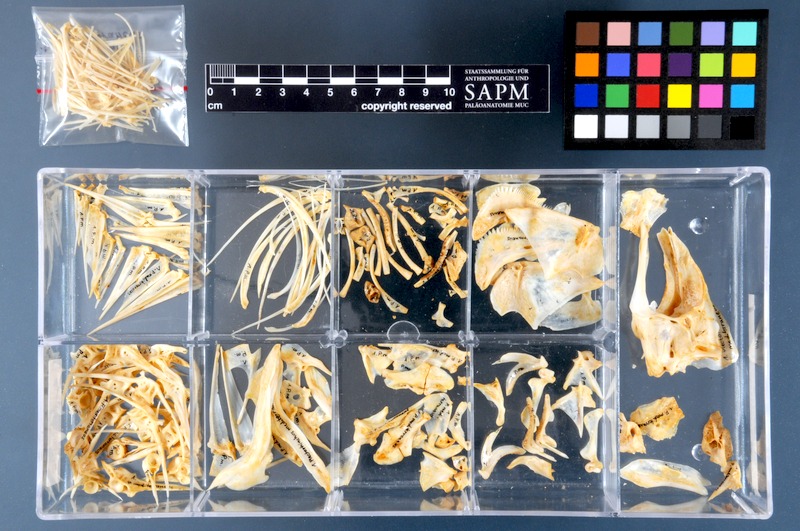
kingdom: Animalia
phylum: Chordata
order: Perciformes
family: Haemulidae
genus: Plectorhinchus
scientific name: Plectorhinchus mediterraneus
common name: Rubber-lip grunt
